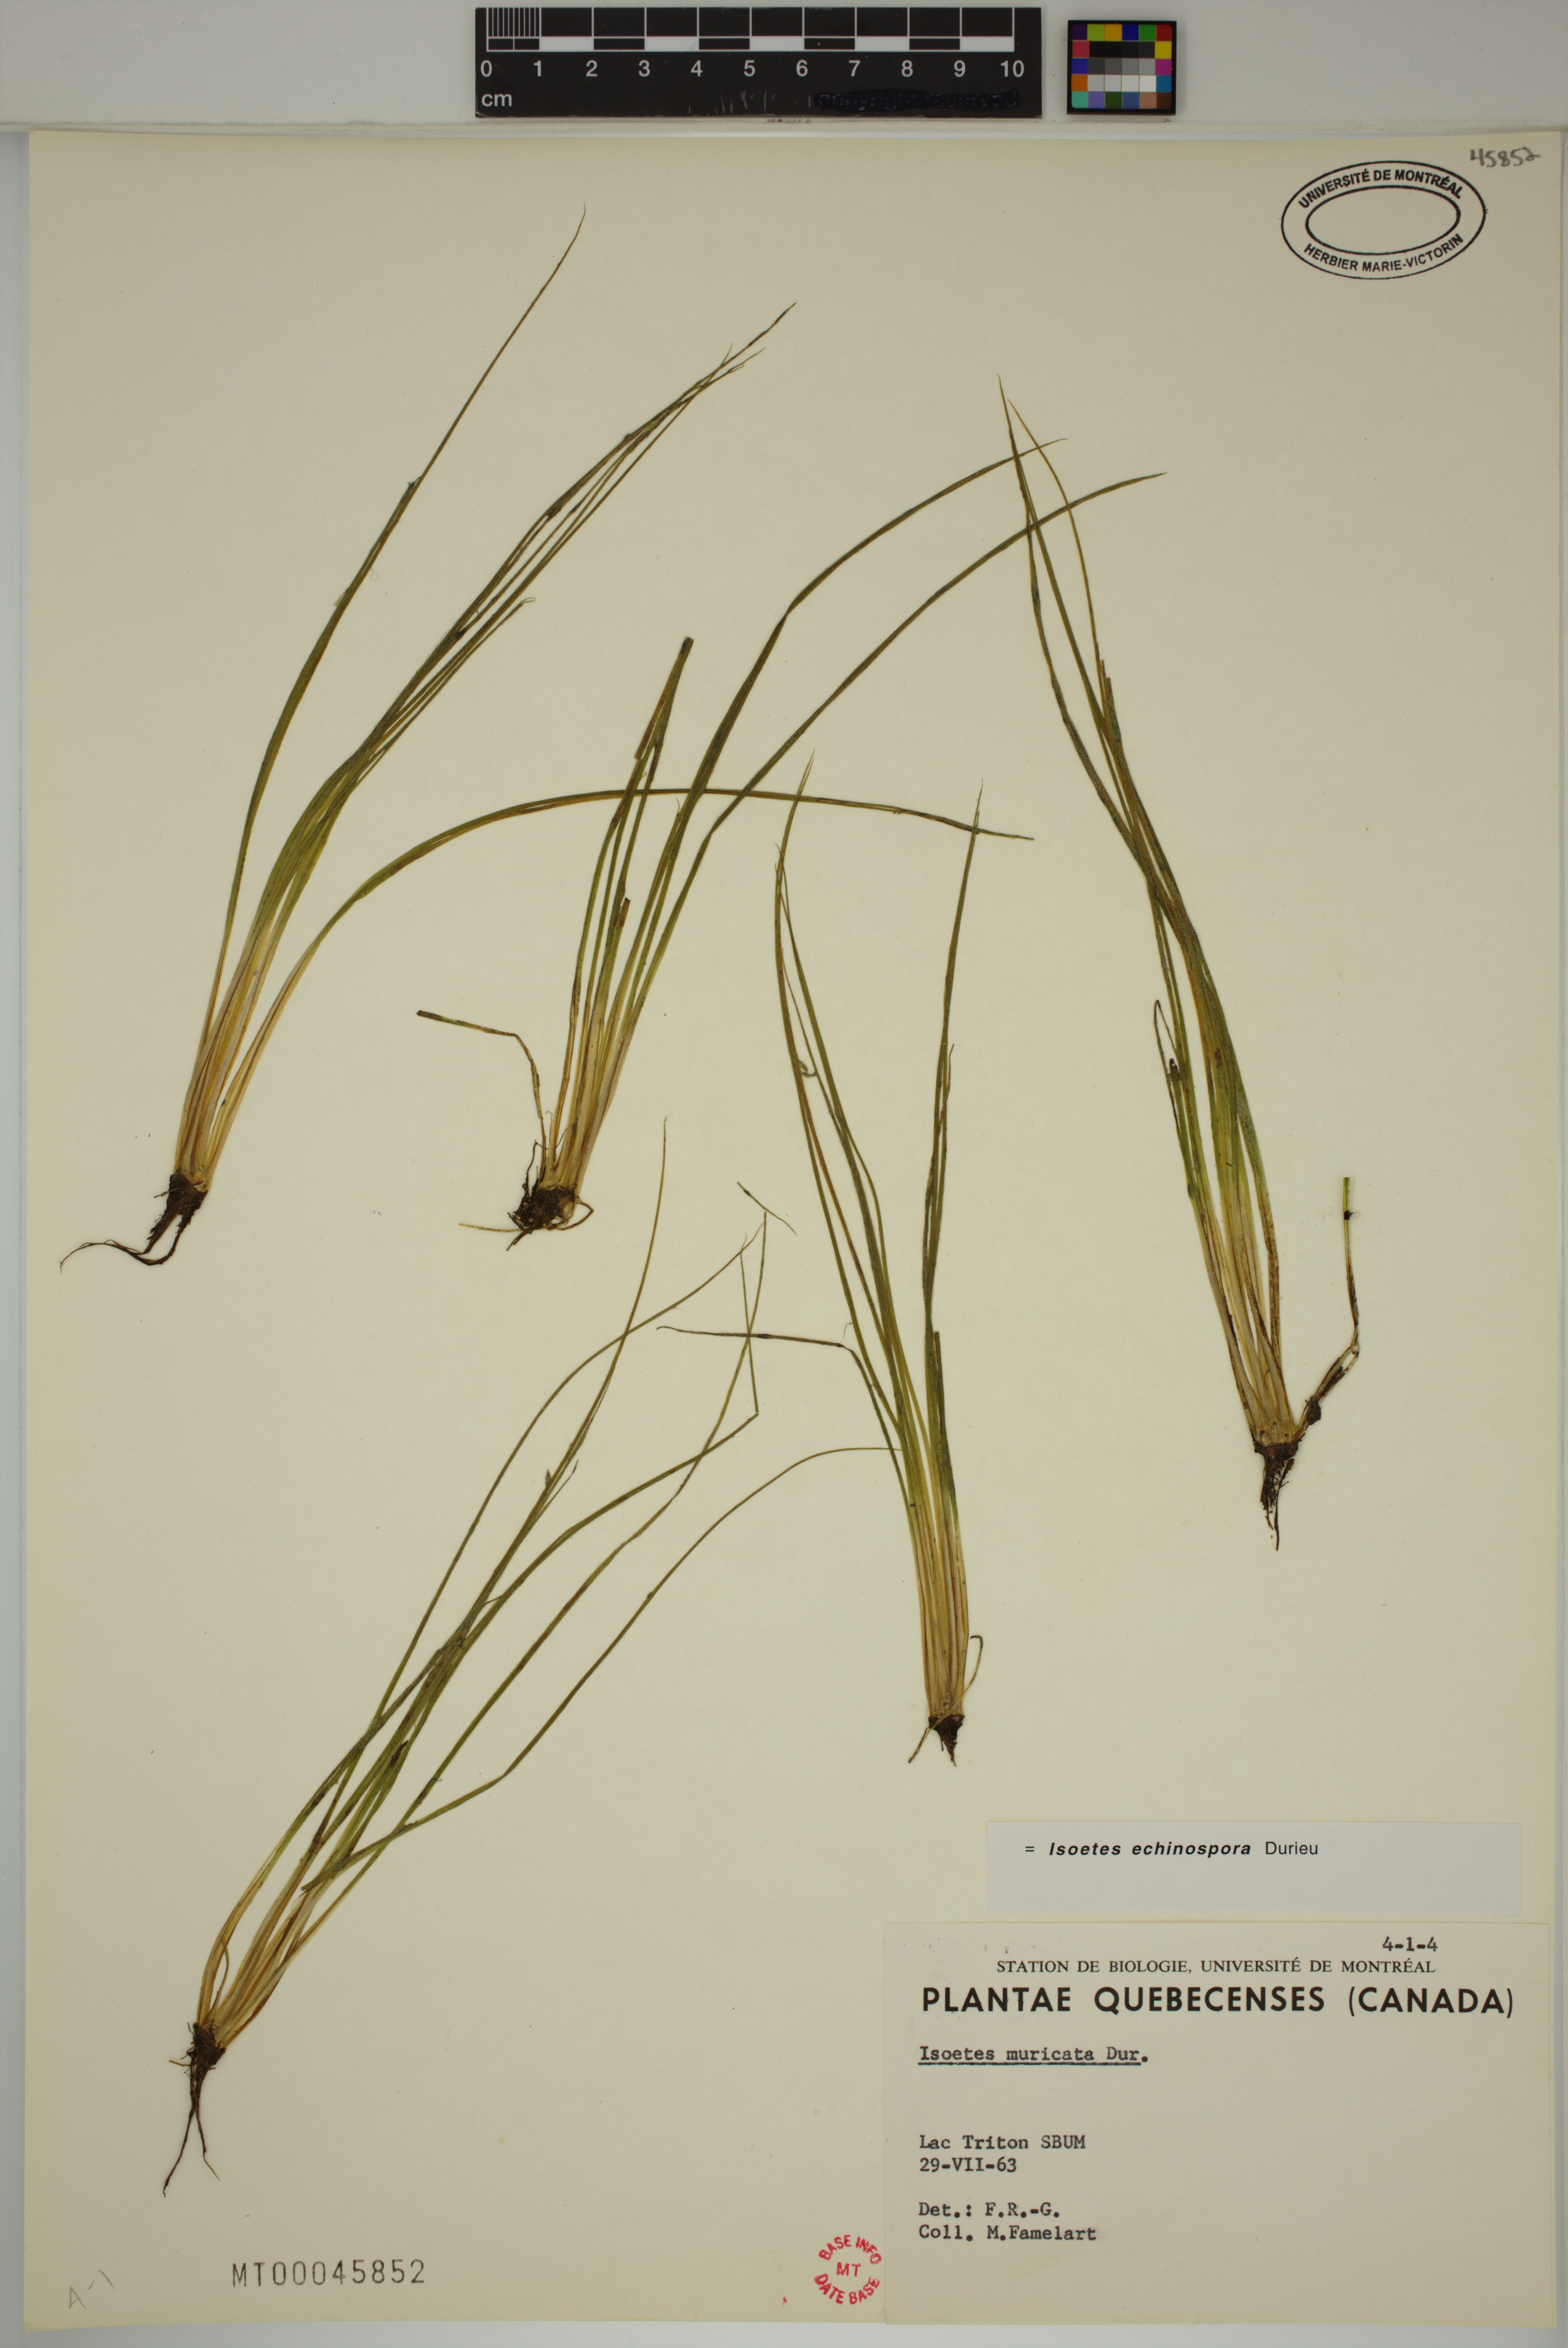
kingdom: Plantae
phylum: Tracheophyta
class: Lycopodiopsida
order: Isoetales
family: Isoetaceae
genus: Isoetes
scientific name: Isoetes echinospora
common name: Spring quillwort
